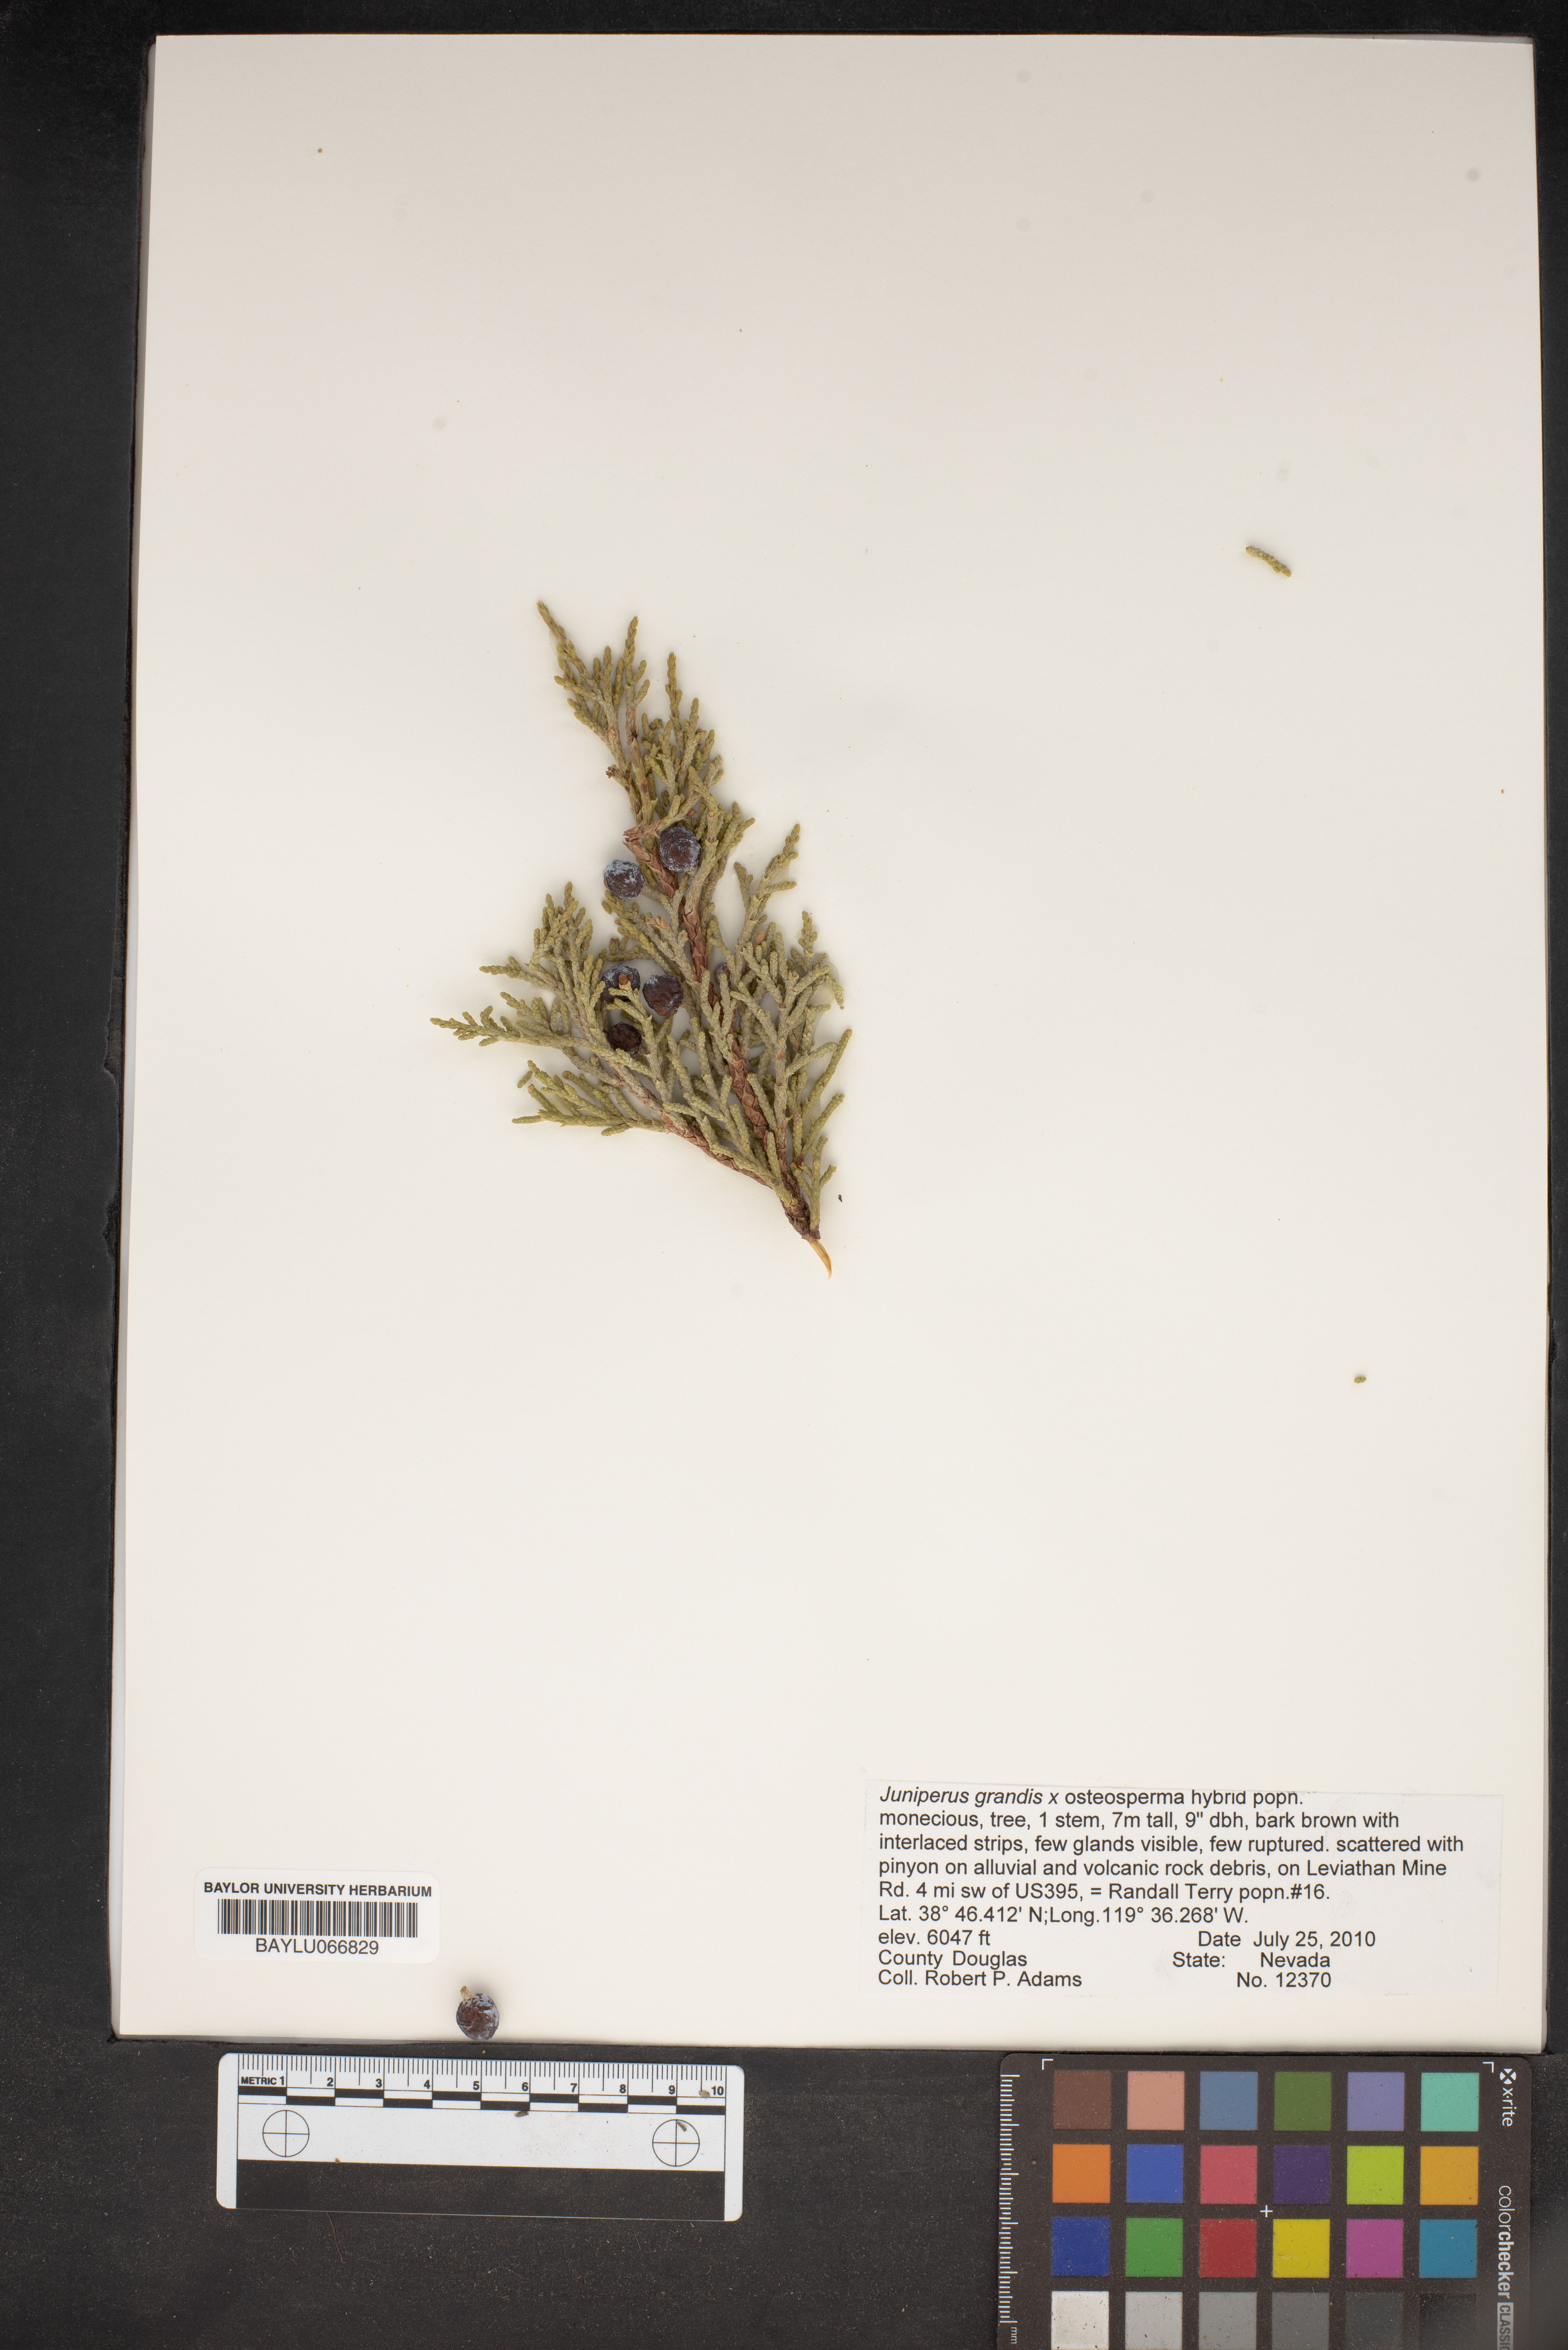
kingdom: Plantae
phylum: Tracheophyta
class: Pinopsida
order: Pinales
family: Cupressaceae
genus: Juniperus
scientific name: Juniperus occidentalis
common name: Western juniper
